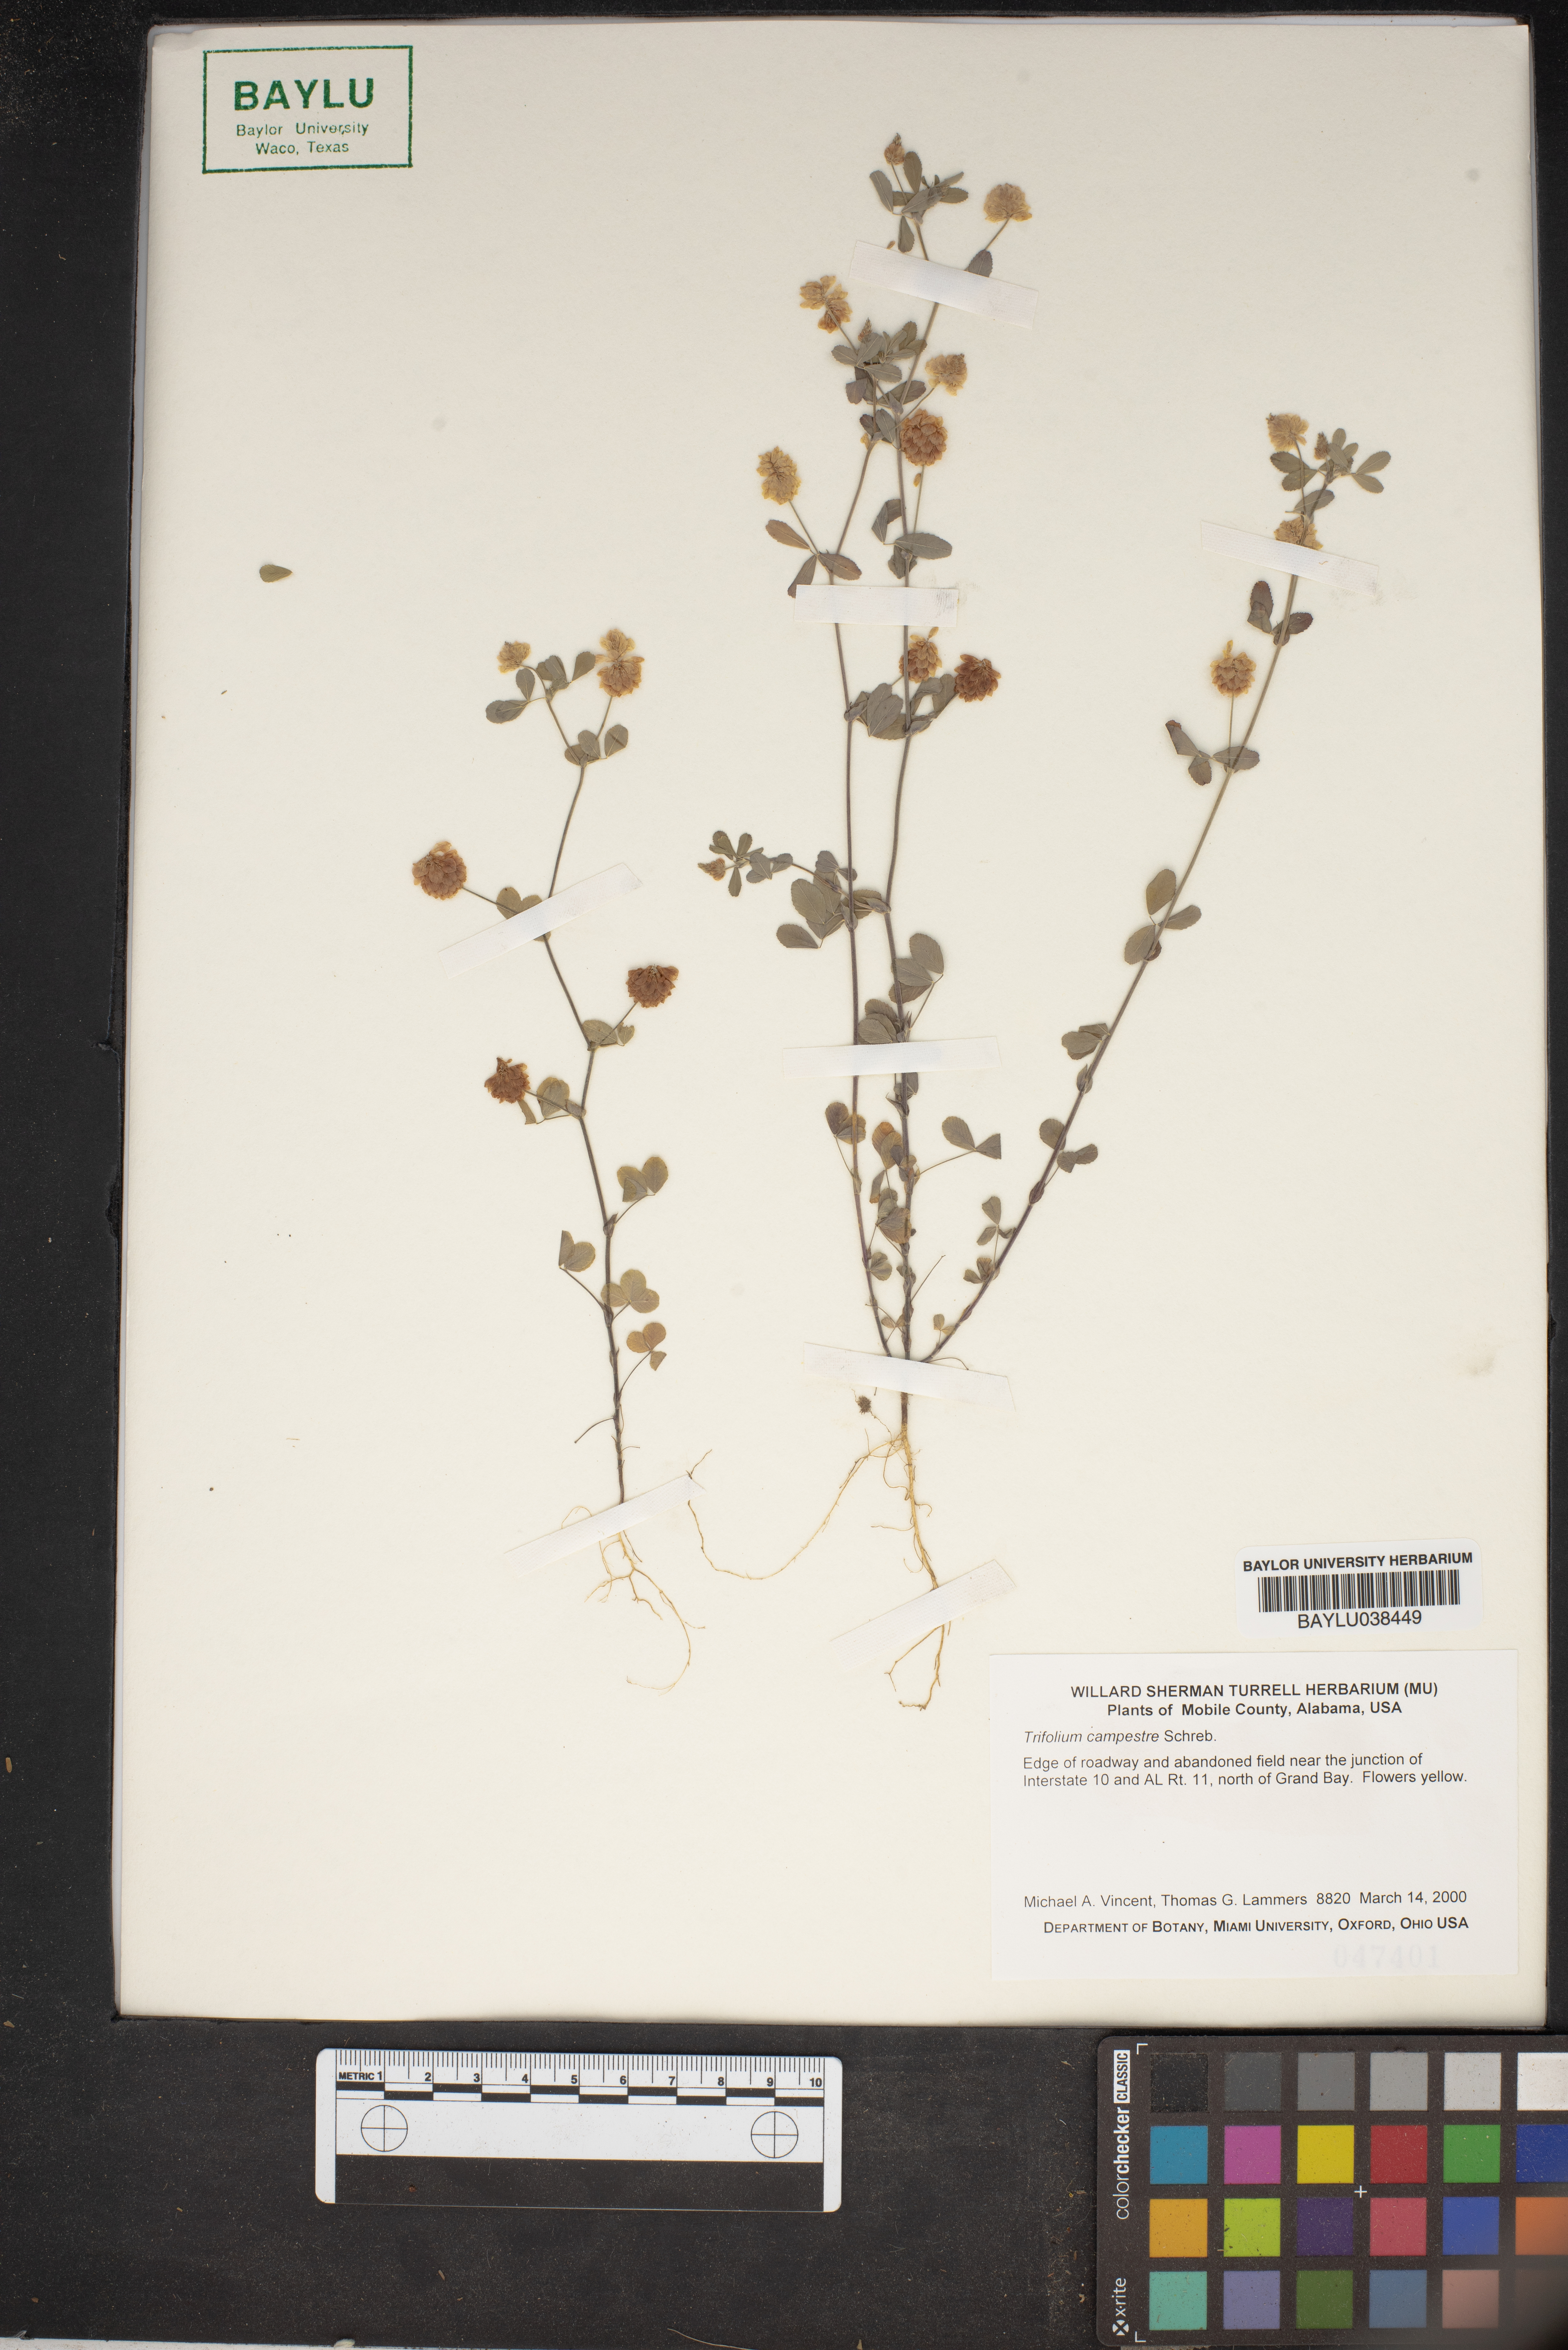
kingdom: Plantae
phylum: Tracheophyta
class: Magnoliopsida
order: Fabales
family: Fabaceae
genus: Trifolium
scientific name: Trifolium campestre
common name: Field clover
